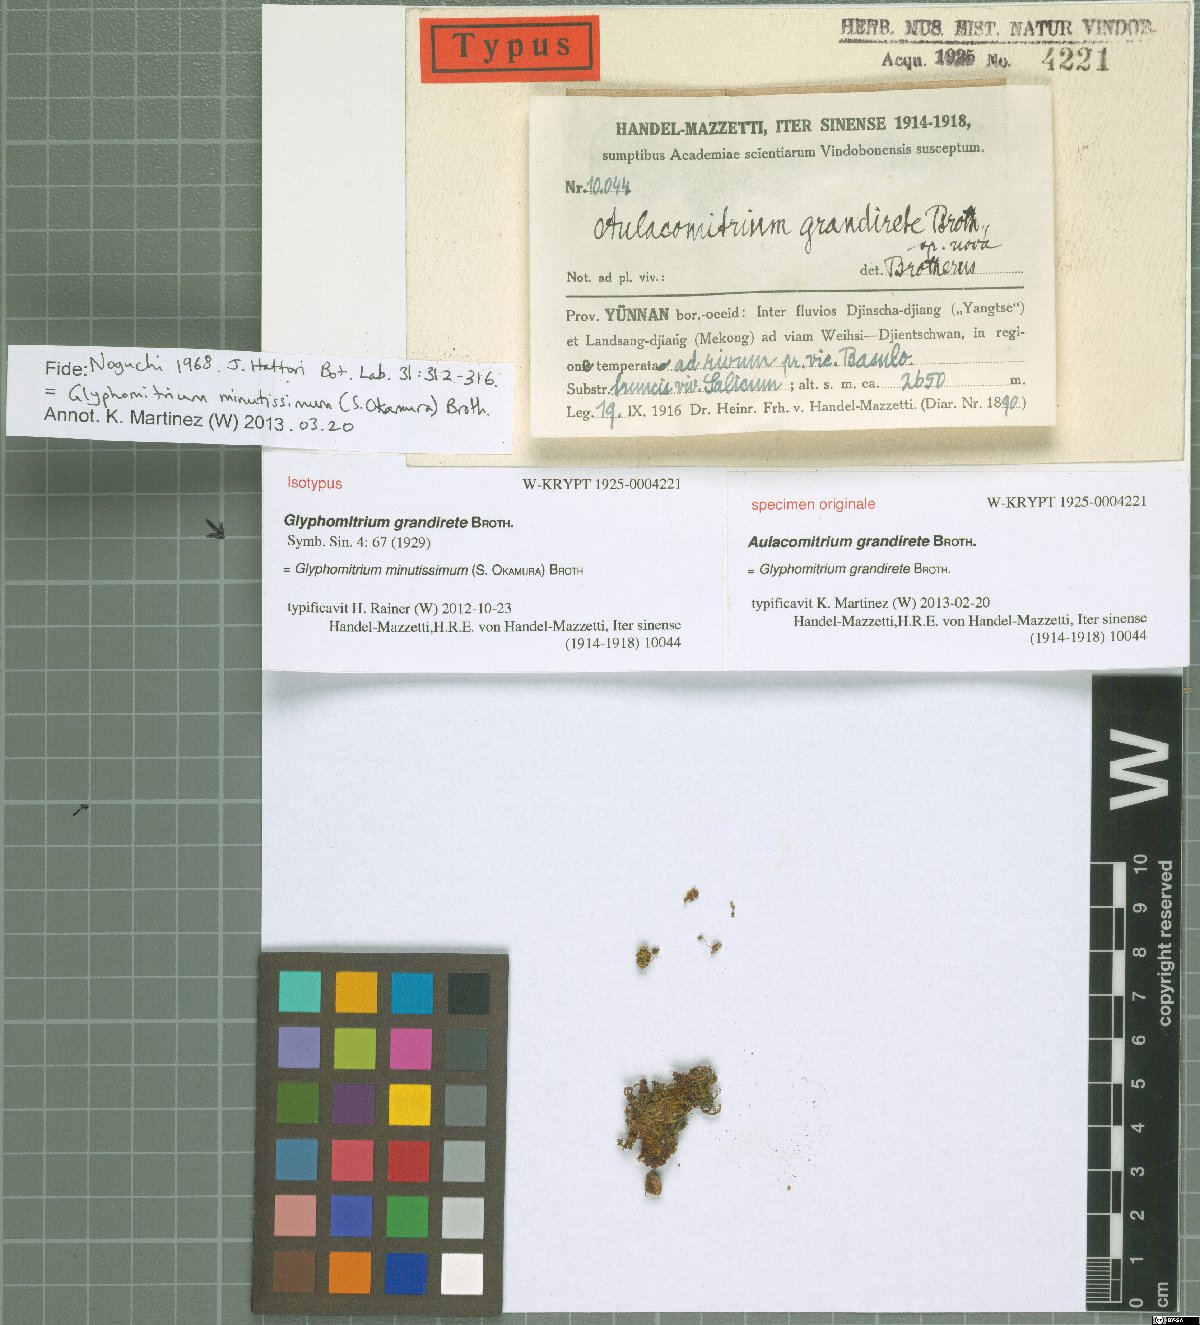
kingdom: Plantae
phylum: Bryophyta
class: Bryopsida
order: Dicranales
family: Rhabdoweisiaceae
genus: Glyphomitrium
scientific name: Glyphomitrium minutissimum
